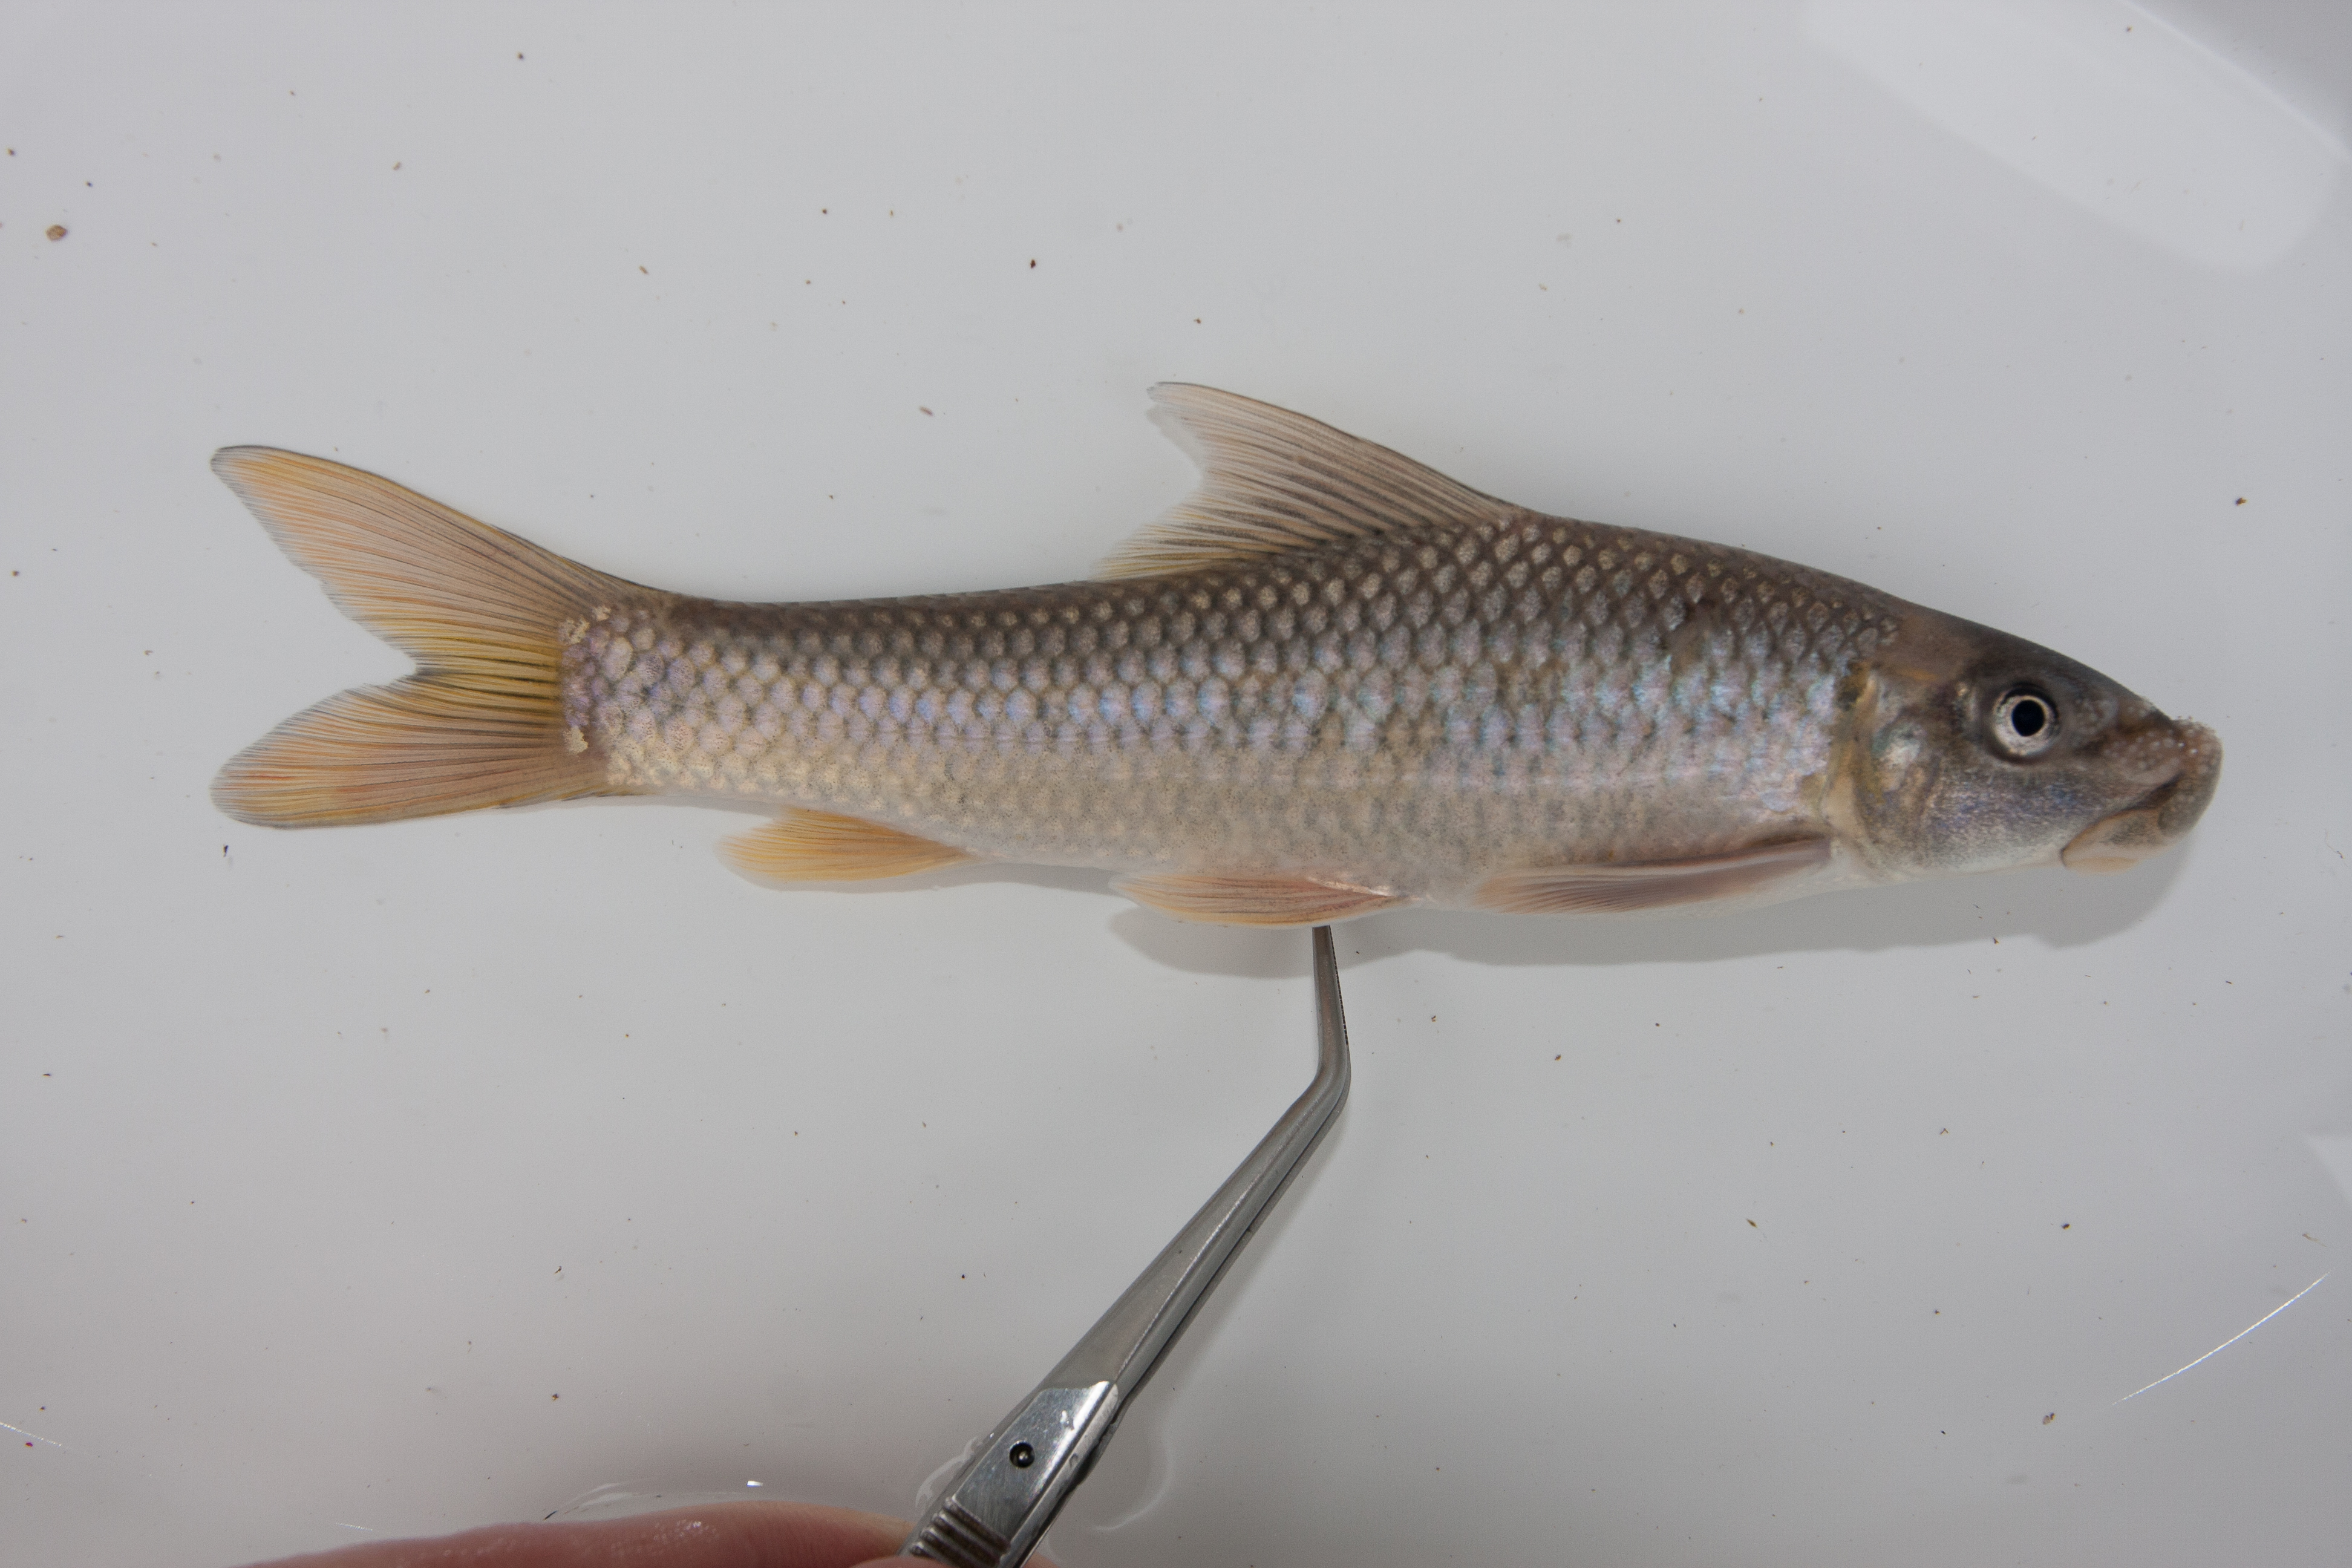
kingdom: Animalia
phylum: Chordata
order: Cypriniformes
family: Cyprinidae
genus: Labeo
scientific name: Labeo molybdinus
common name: Leaden labeo
